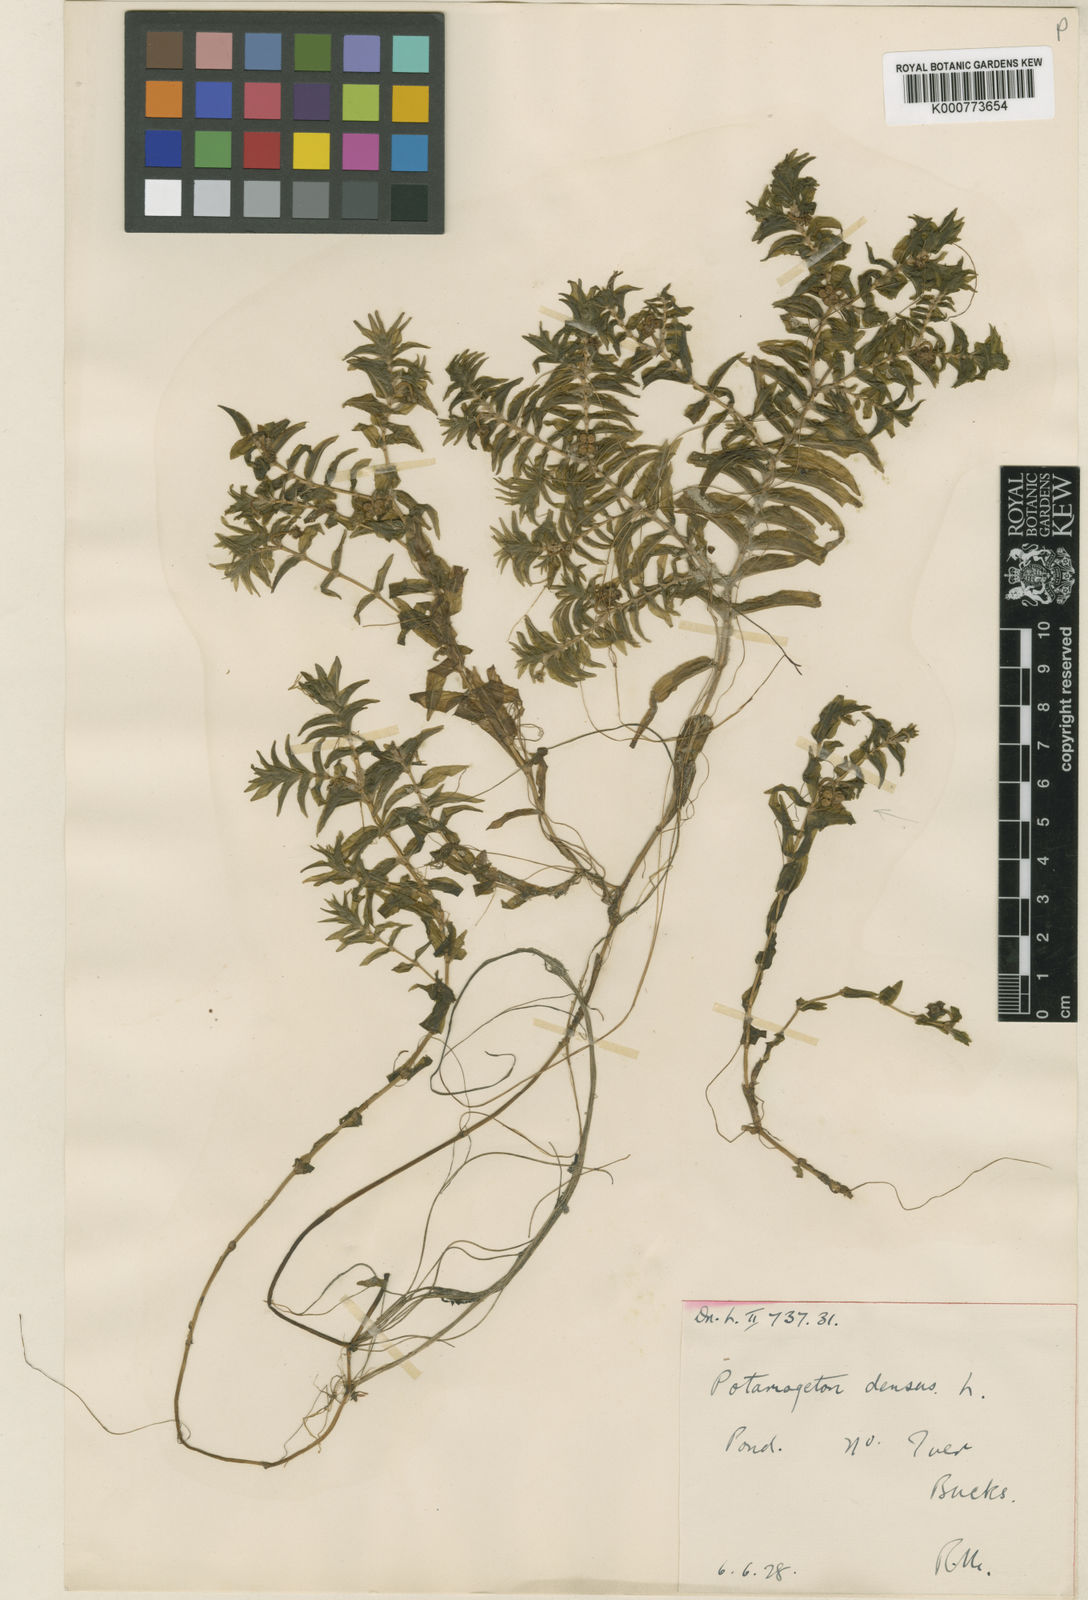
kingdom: Plantae
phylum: Tracheophyta
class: Liliopsida
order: Alismatales
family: Potamogetonaceae
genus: Groenlandia
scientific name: Groenlandia densa
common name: Opposite-leaved pondweed
